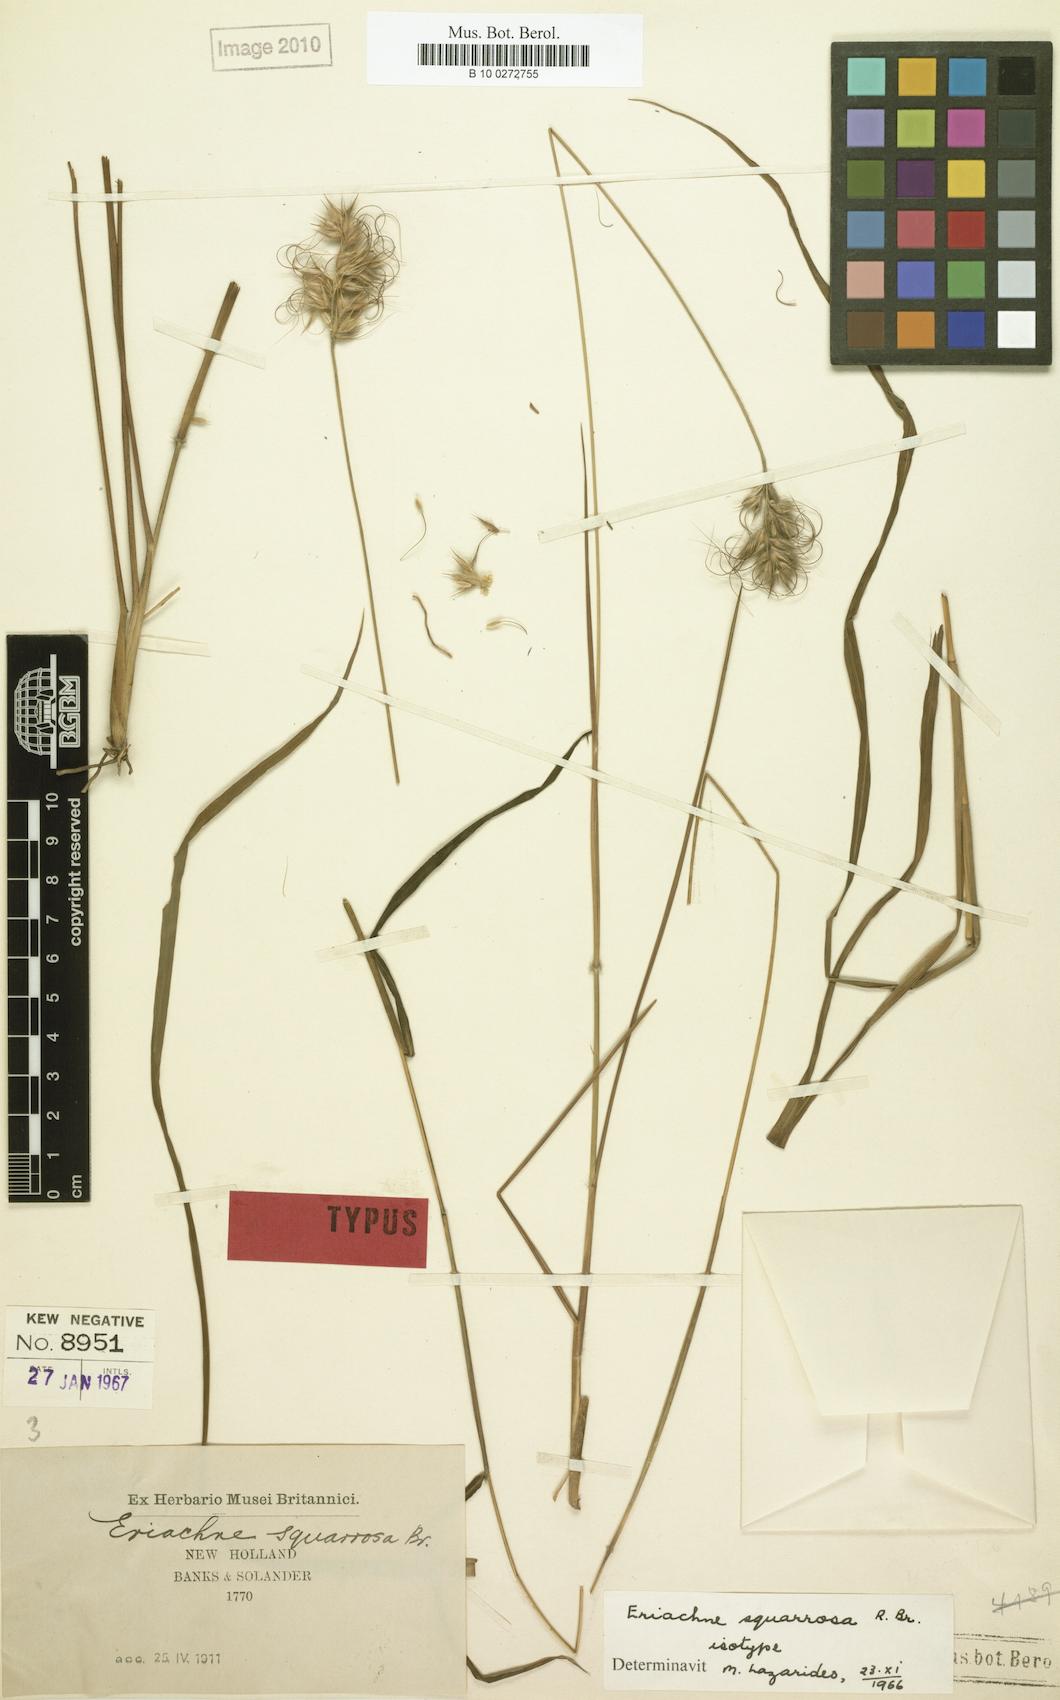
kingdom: Plantae
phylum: Tracheophyta
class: Liliopsida
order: Poales
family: Poaceae
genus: Eriachne
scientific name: Eriachne squarrosa
